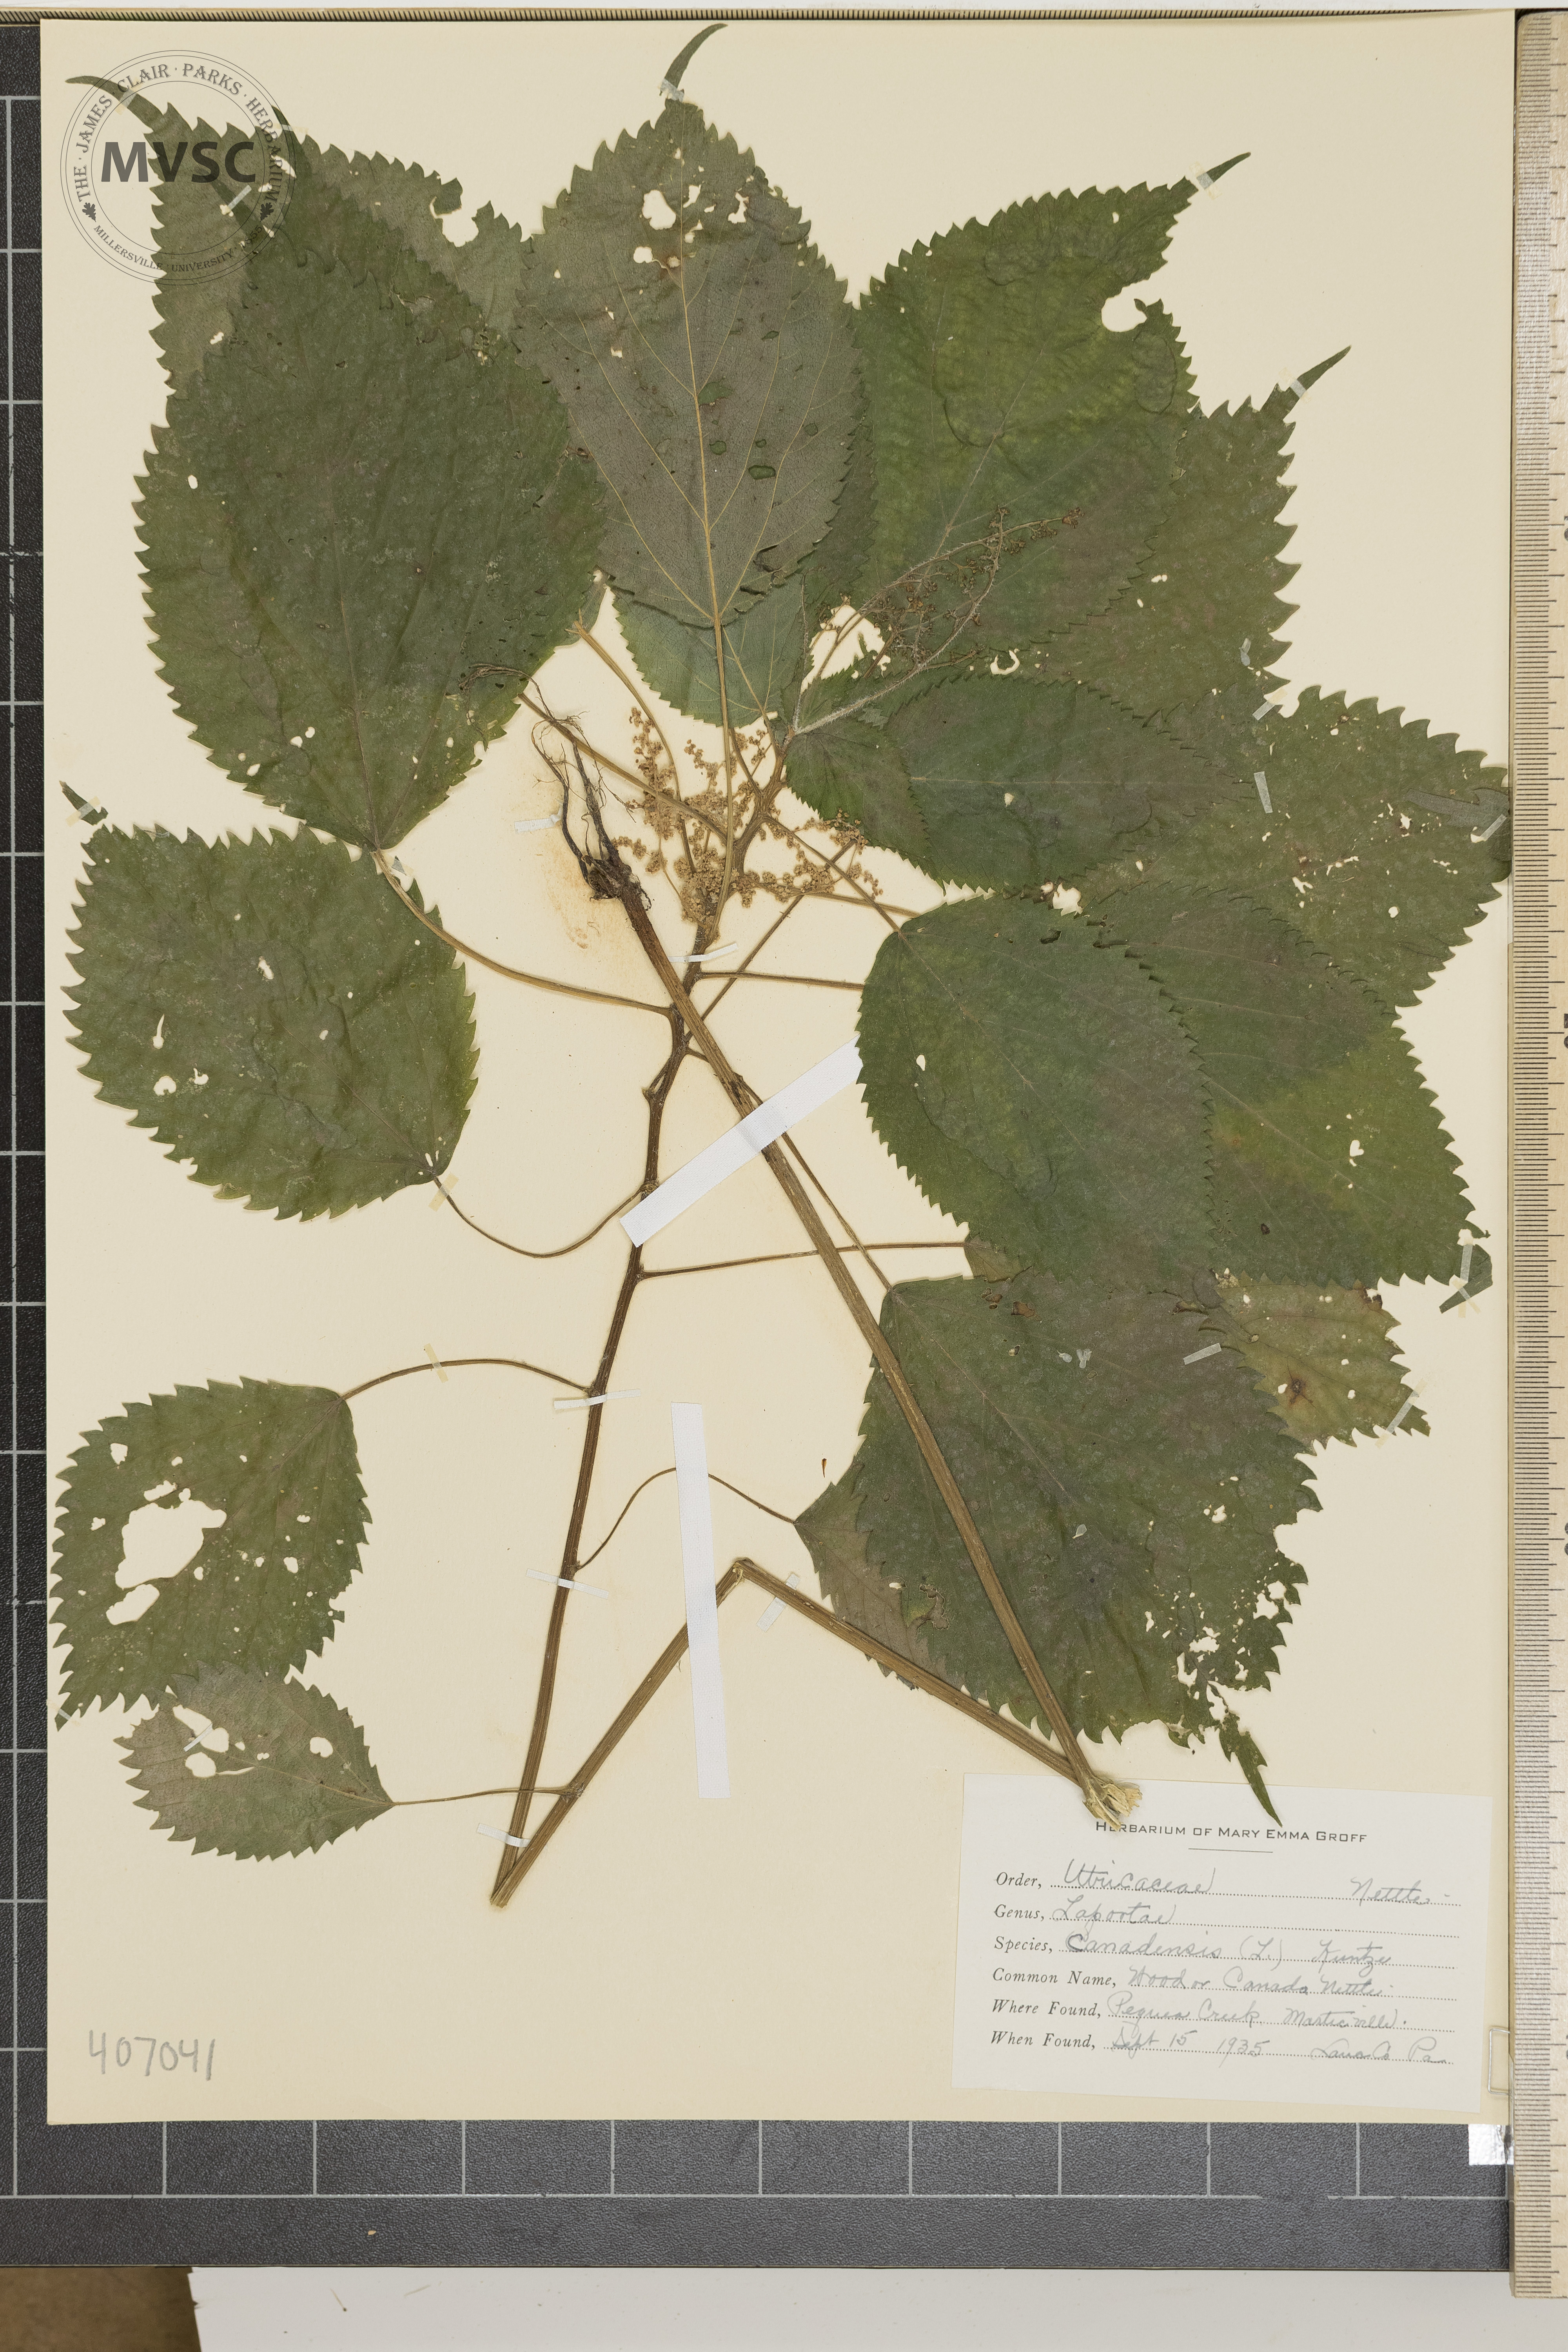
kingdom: Plantae
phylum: Tracheophyta
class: Magnoliopsida
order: Rosales
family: Urticaceae
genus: Laportea
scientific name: Laportea canadensis
